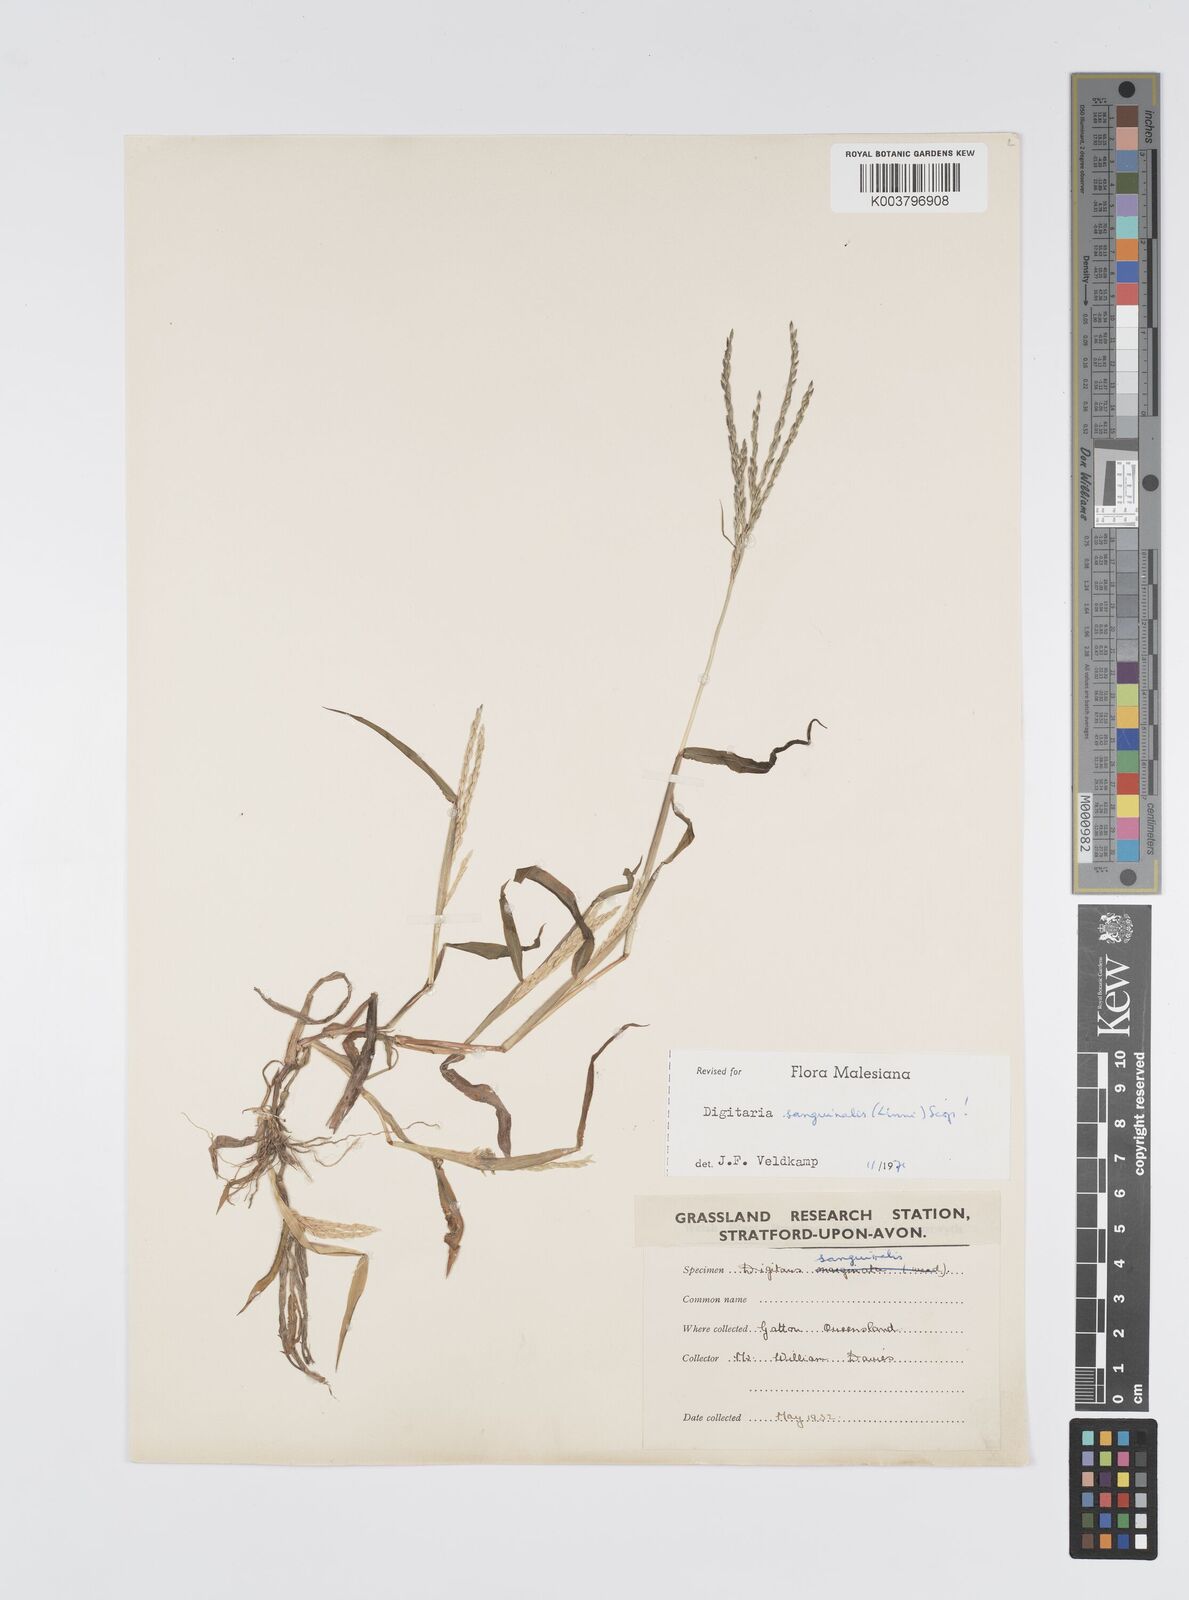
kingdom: Plantae
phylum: Tracheophyta
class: Liliopsida
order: Poales
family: Poaceae
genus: Digitaria
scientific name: Digitaria sanguinalis
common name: Hairy crabgrass
